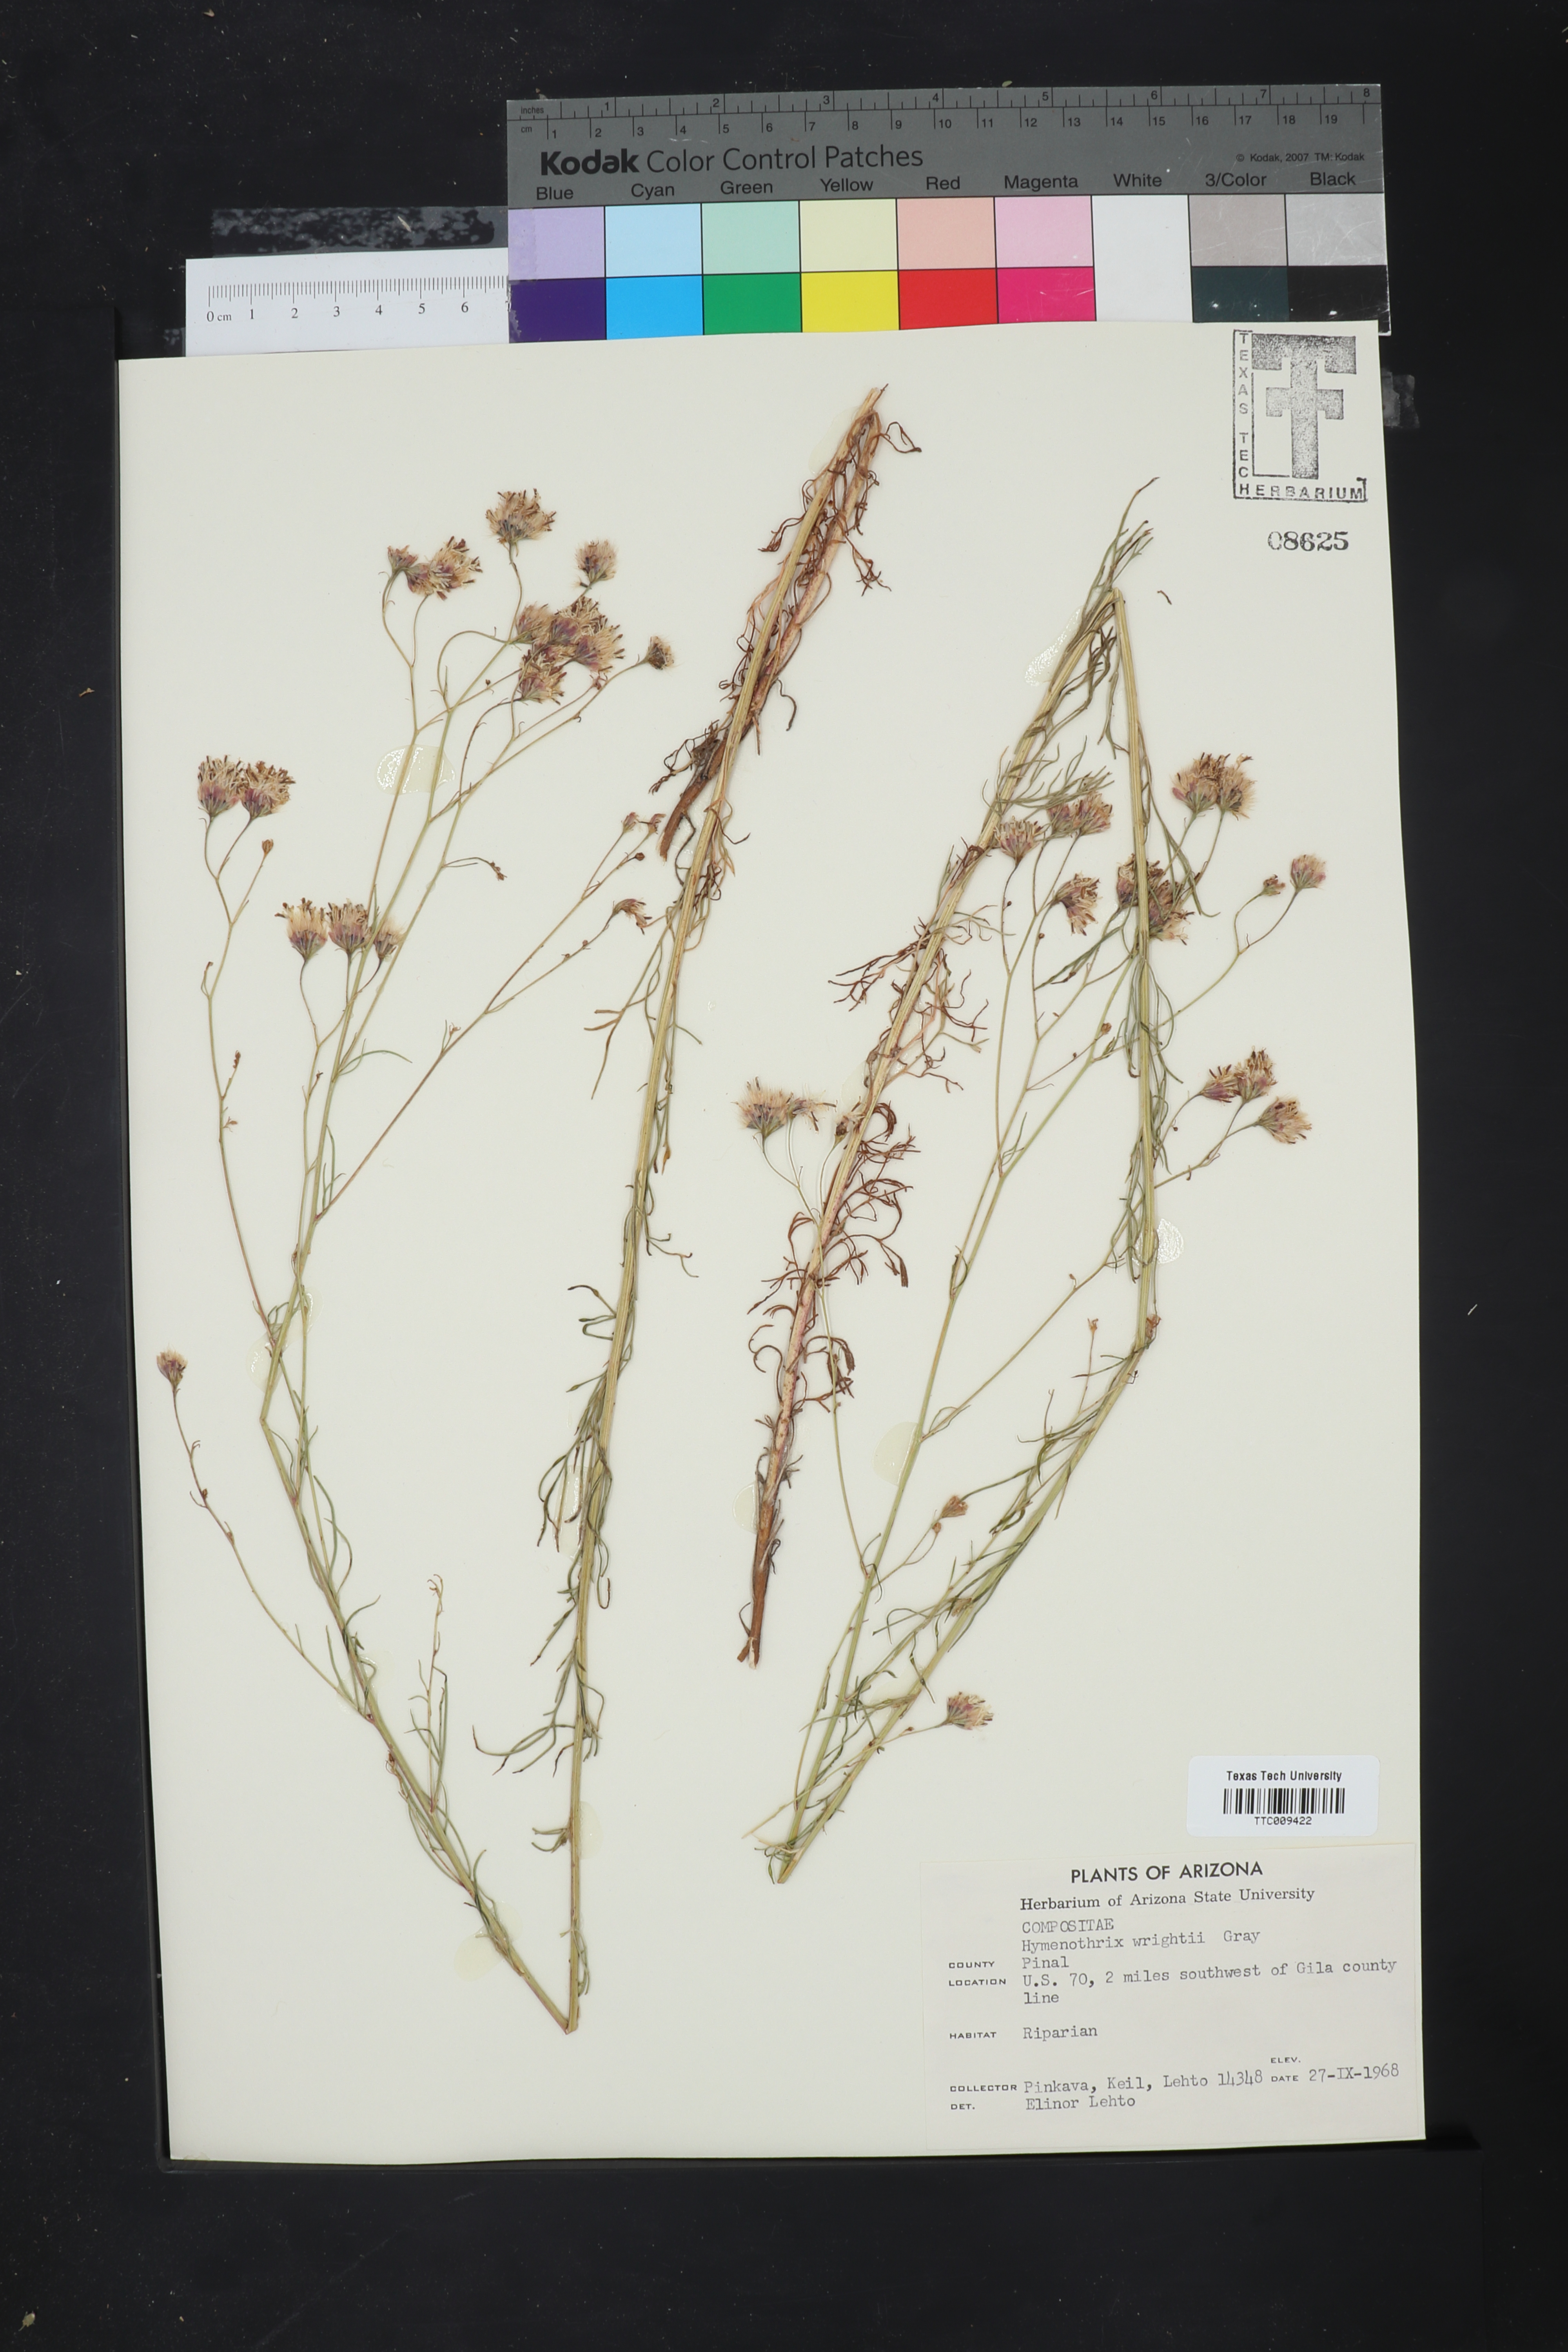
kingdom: Plantae
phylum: Tracheophyta
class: Magnoliopsida
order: Asterales
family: Asteraceae
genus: Hymenothrix
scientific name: Hymenothrix wrightii
